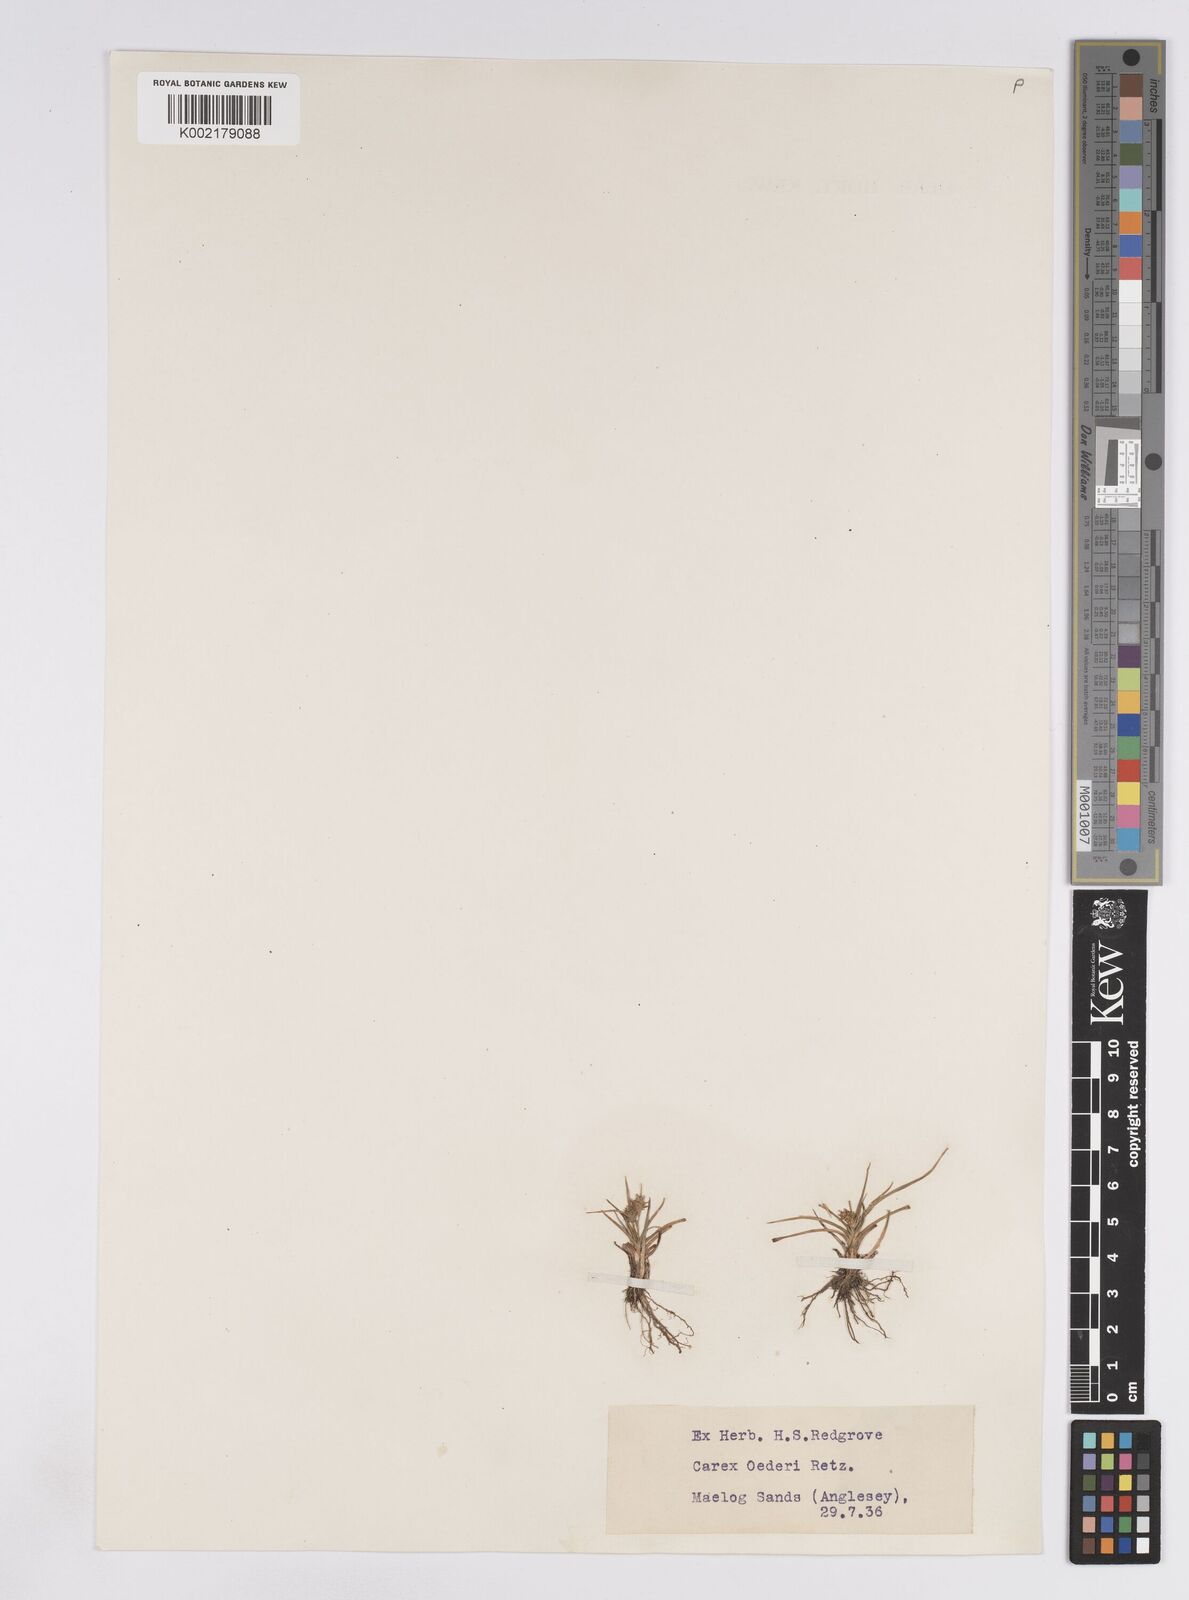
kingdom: Plantae
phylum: Tracheophyta
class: Liliopsida
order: Poales
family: Cyperaceae
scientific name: Cyperaceae
